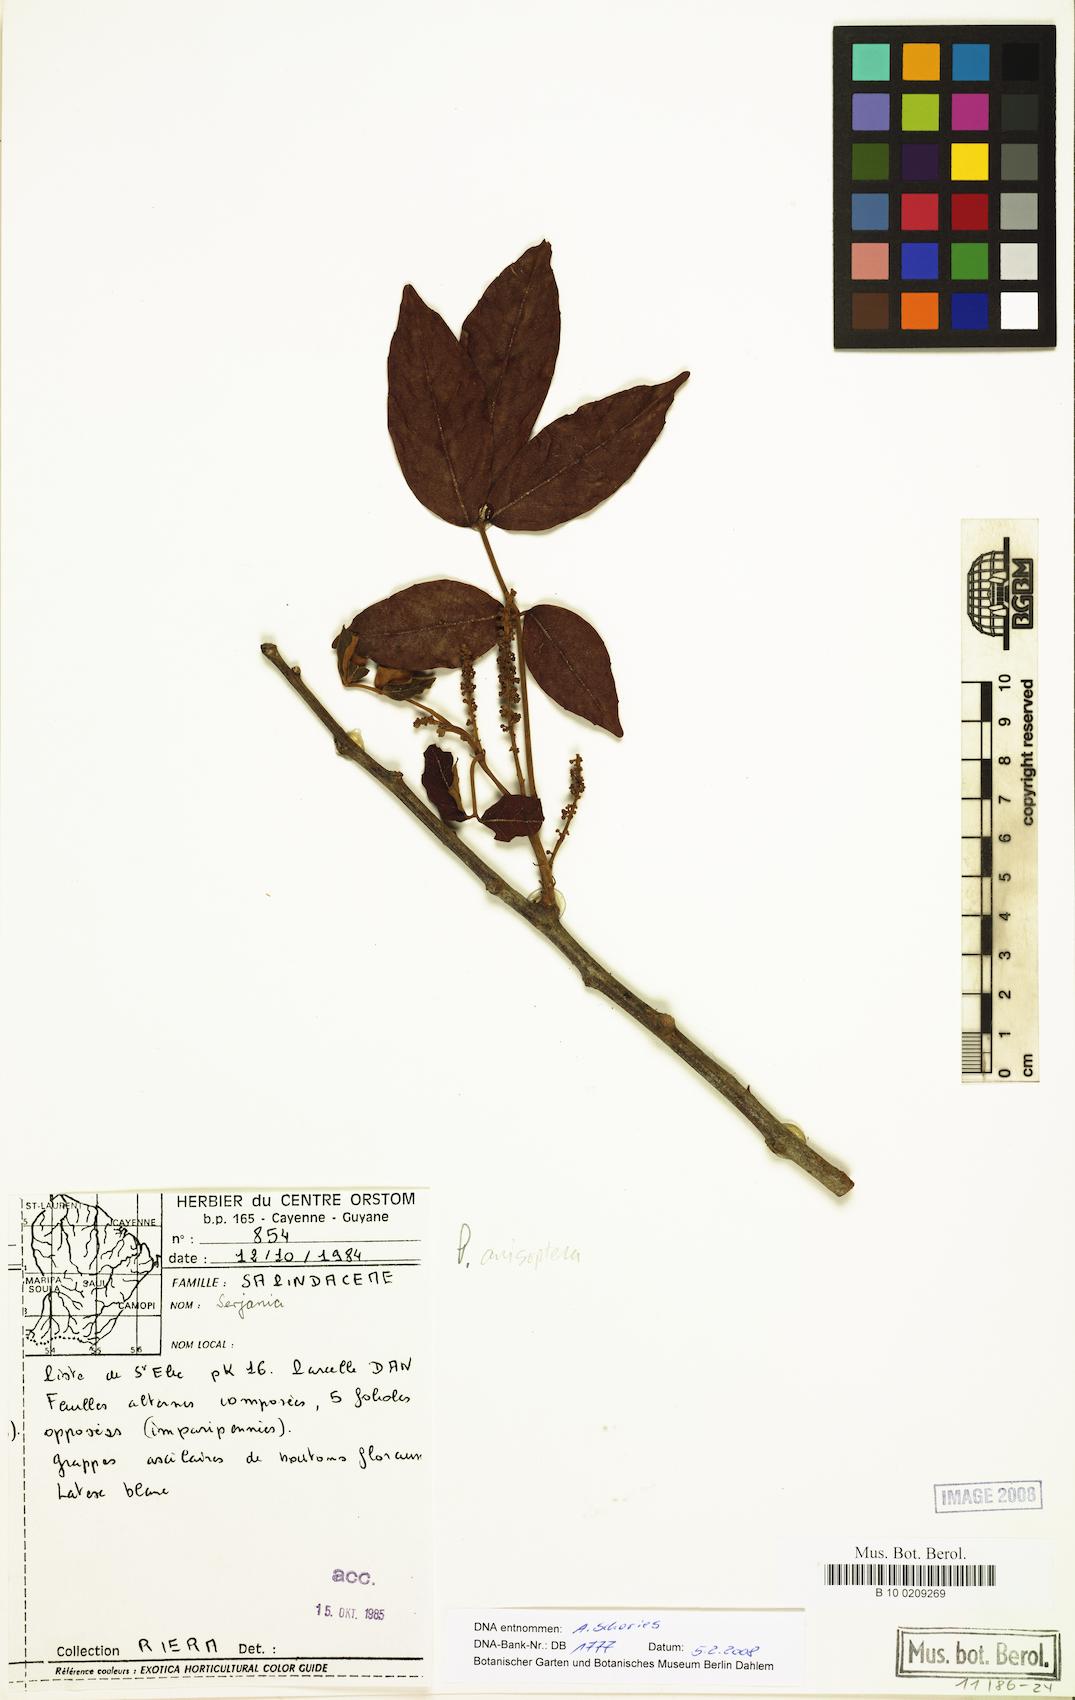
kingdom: Plantae
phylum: Tracheophyta
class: Magnoliopsida
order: Sapindales
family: Sapindaceae
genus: Serjania
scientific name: Serjania
